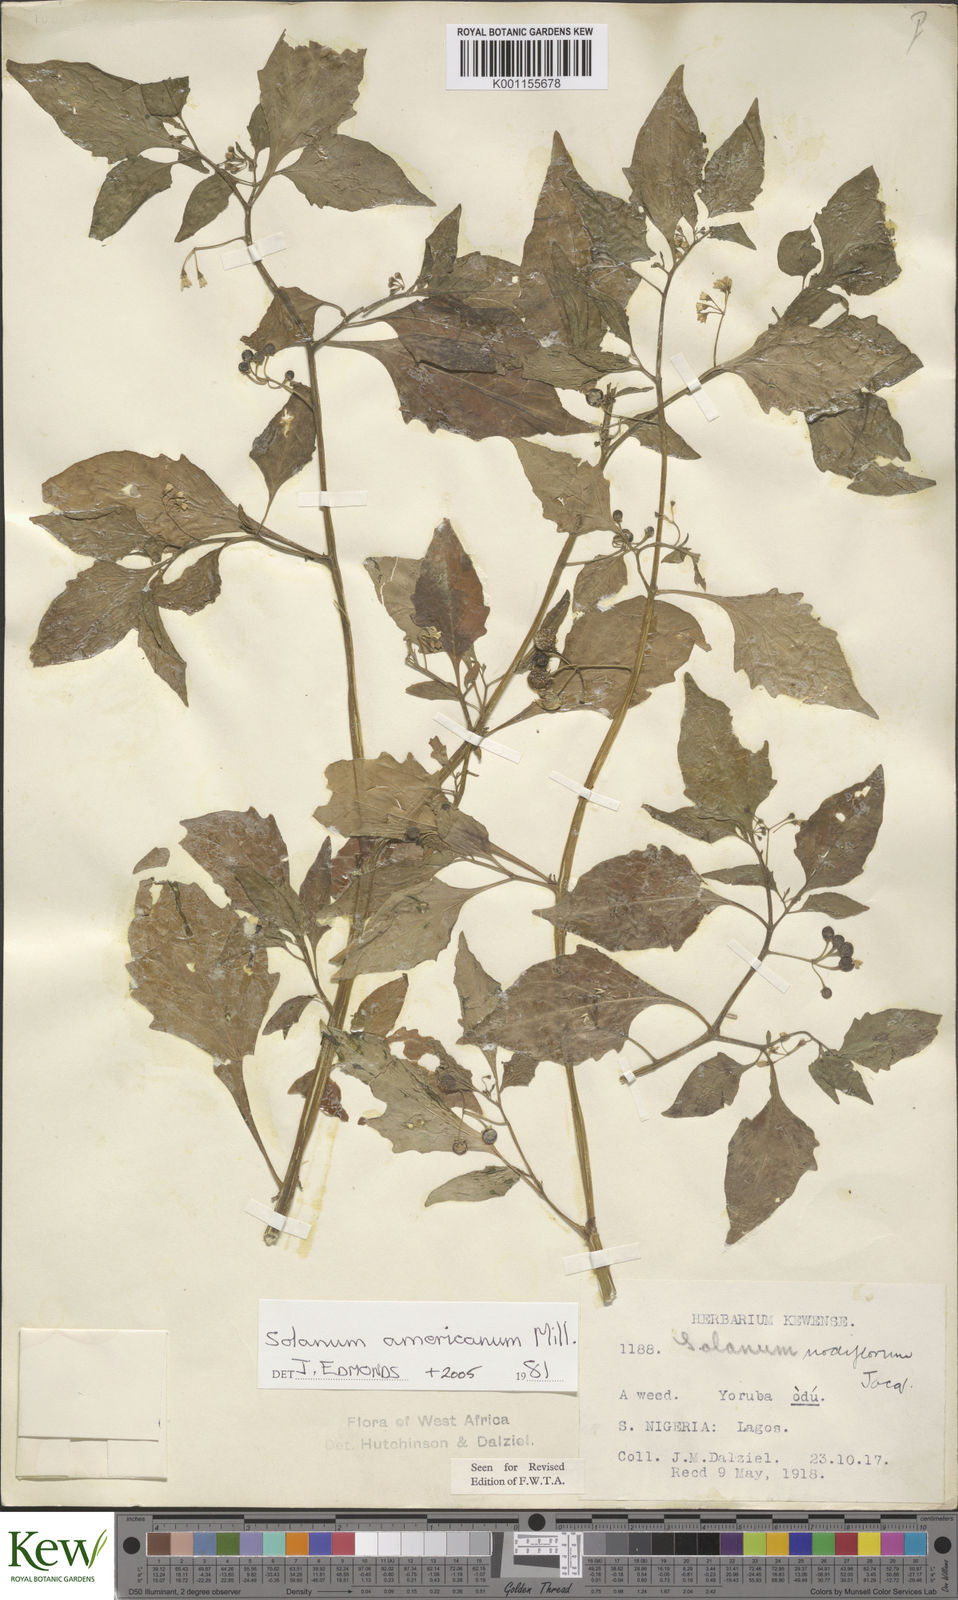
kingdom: Plantae
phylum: Tracheophyta
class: Magnoliopsida
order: Solanales
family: Solanaceae
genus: Solanum
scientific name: Solanum americanum
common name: American black nightshade
